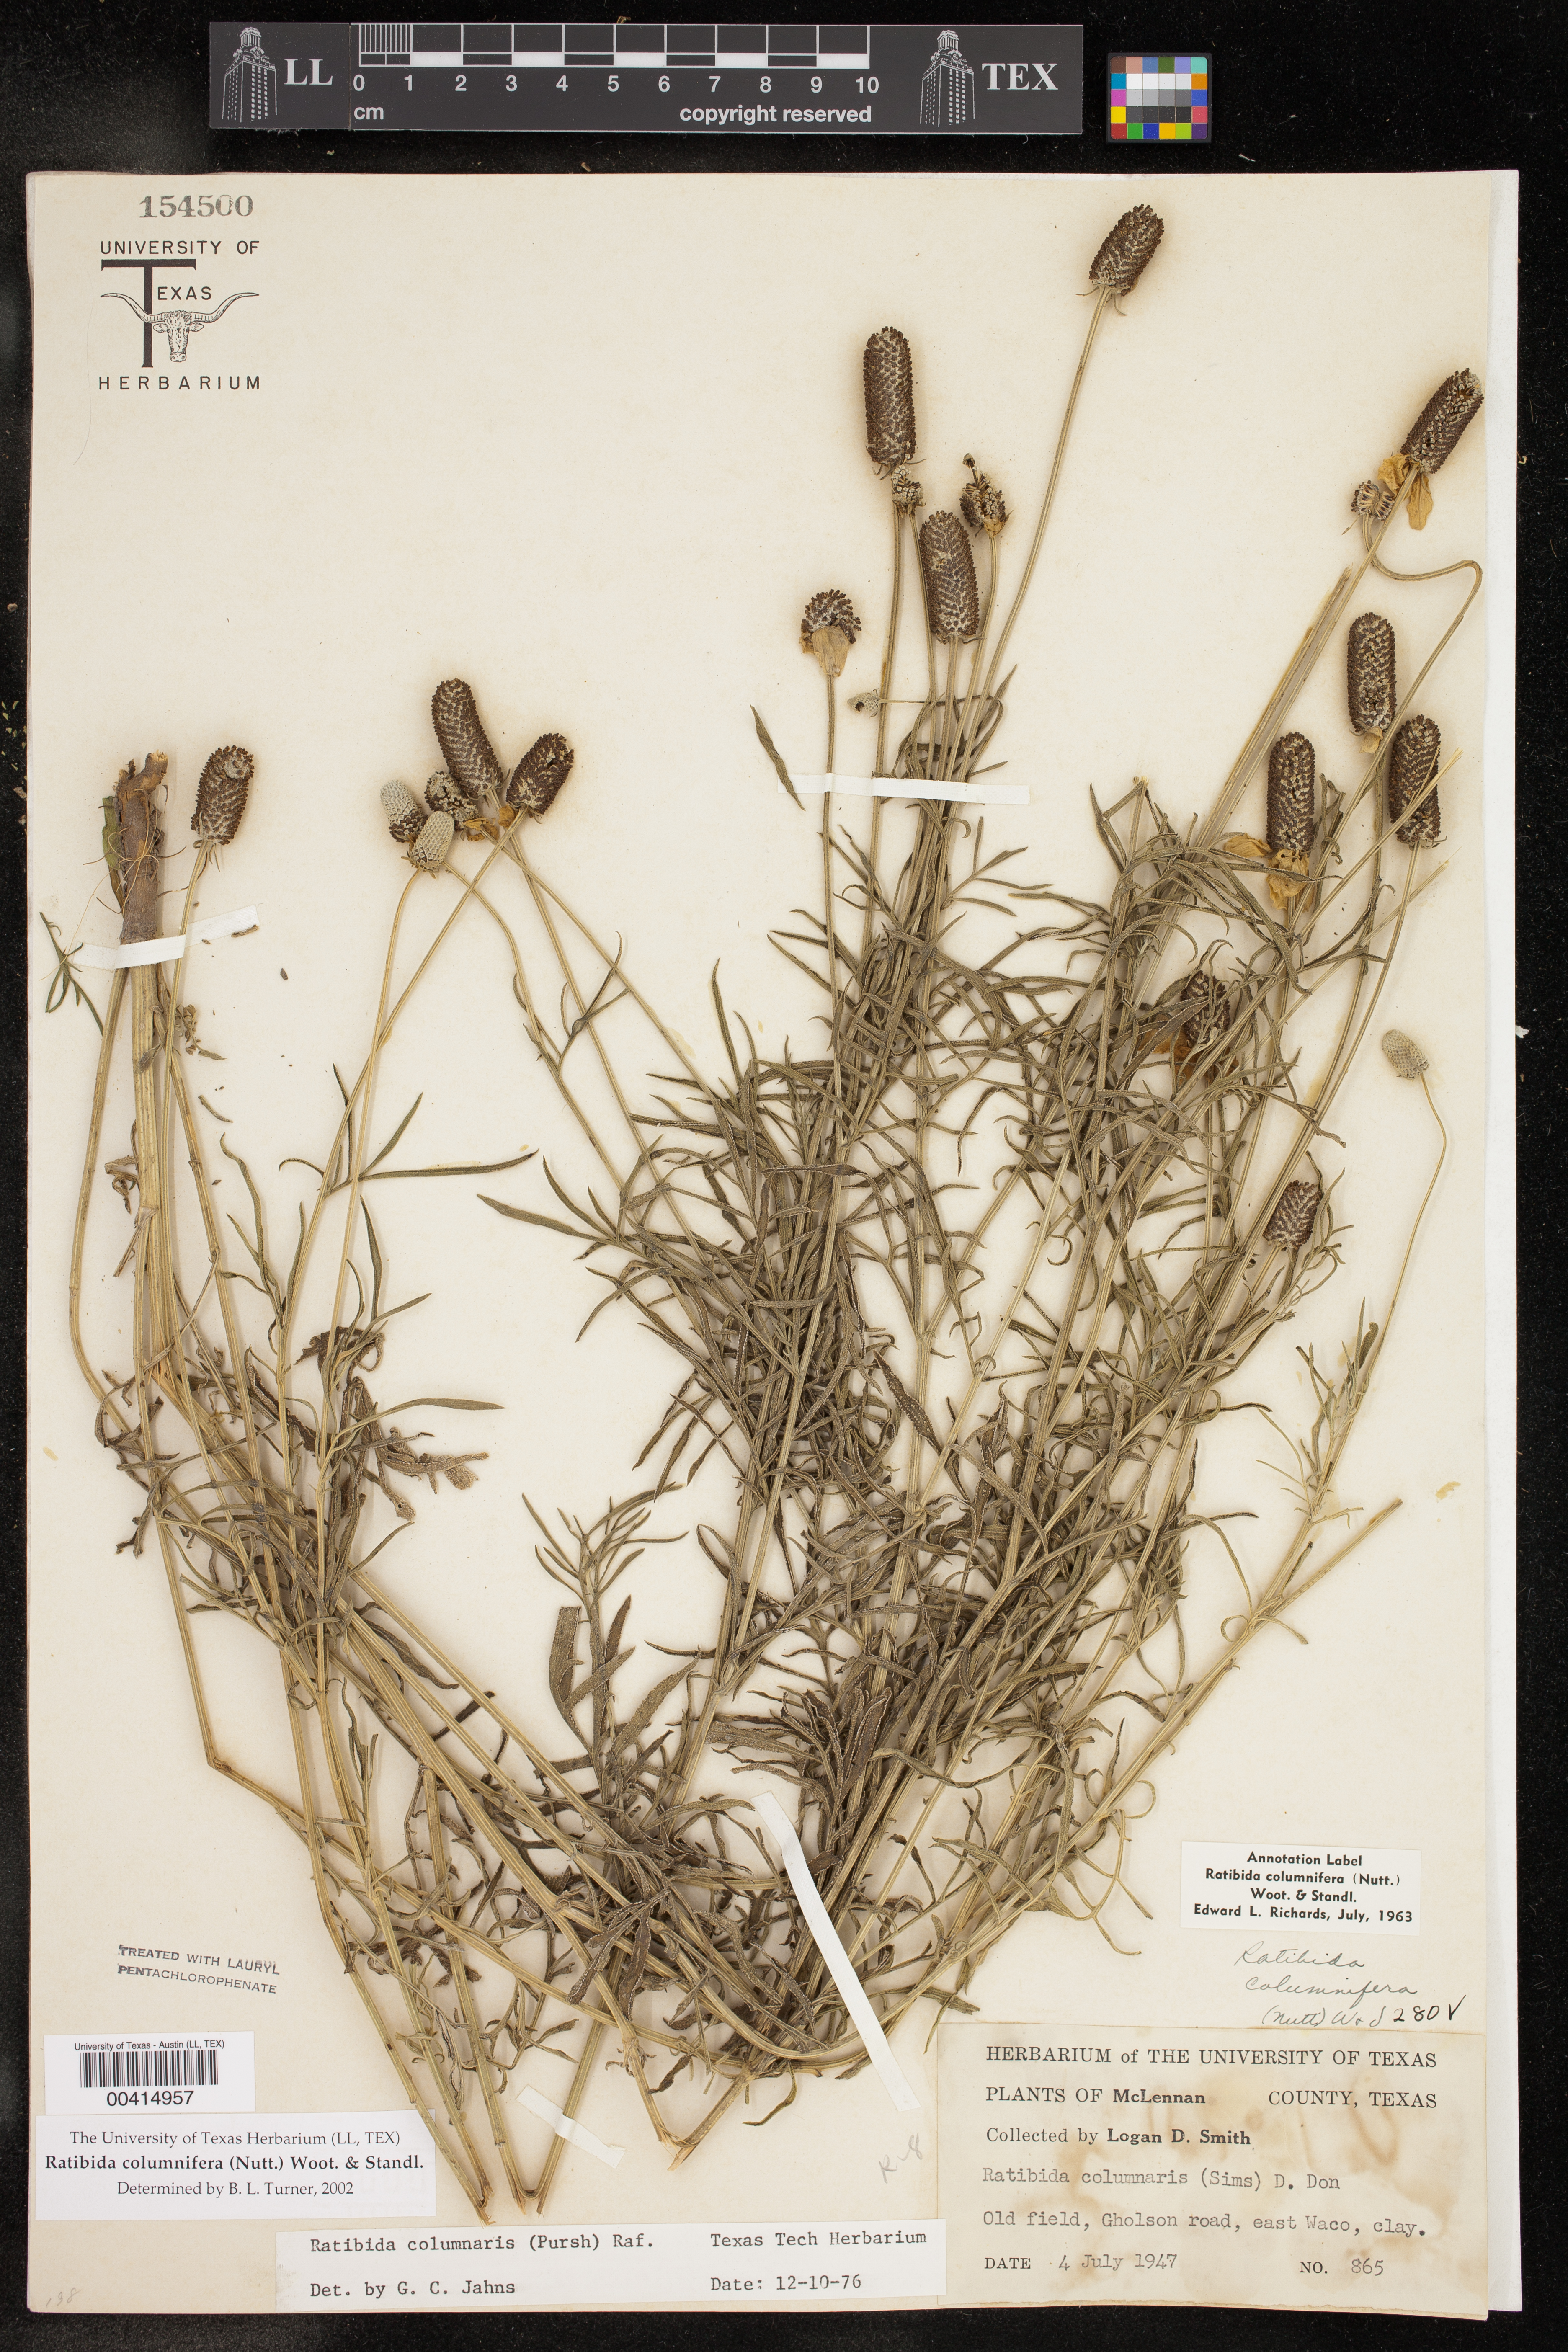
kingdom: Plantae
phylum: Tracheophyta
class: Magnoliopsida
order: Asterales
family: Asteraceae
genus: Ratibida
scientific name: Ratibida columnifera
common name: Prairie coneflower
